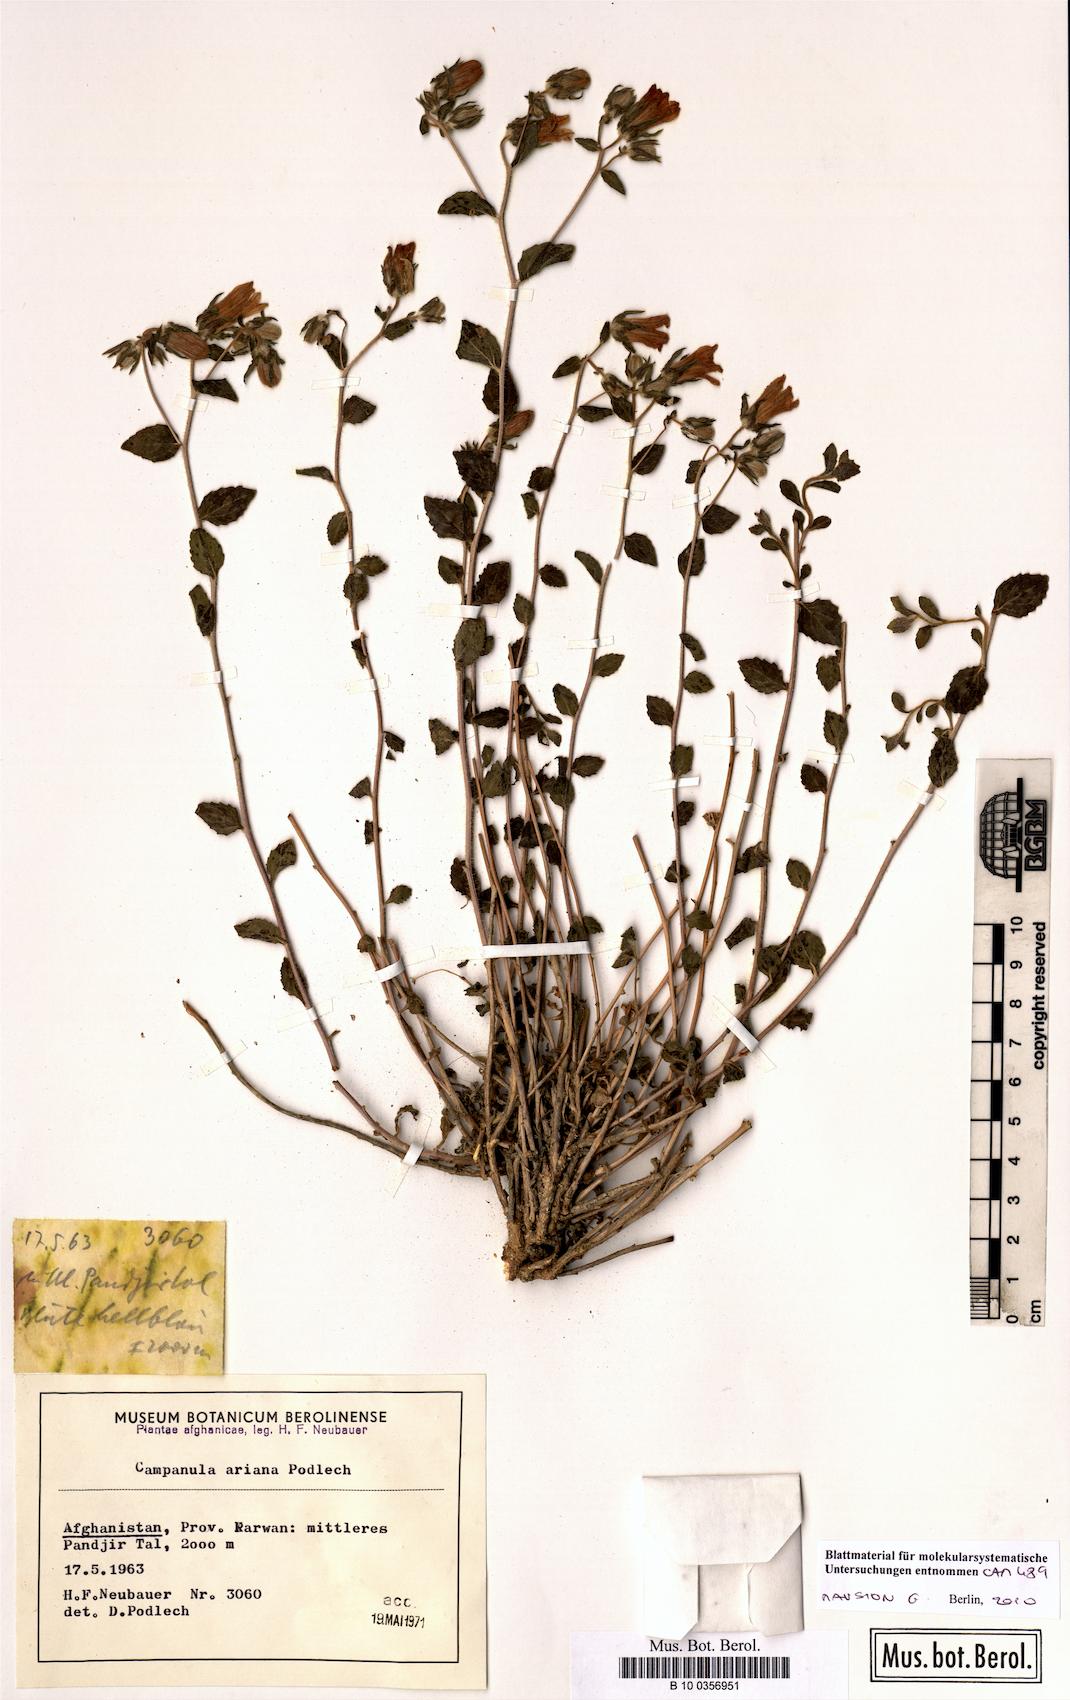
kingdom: Plantae
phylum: Tracheophyta
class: Magnoliopsida
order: Asterales
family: Campanulaceae
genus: Campanula
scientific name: Campanula ariana
